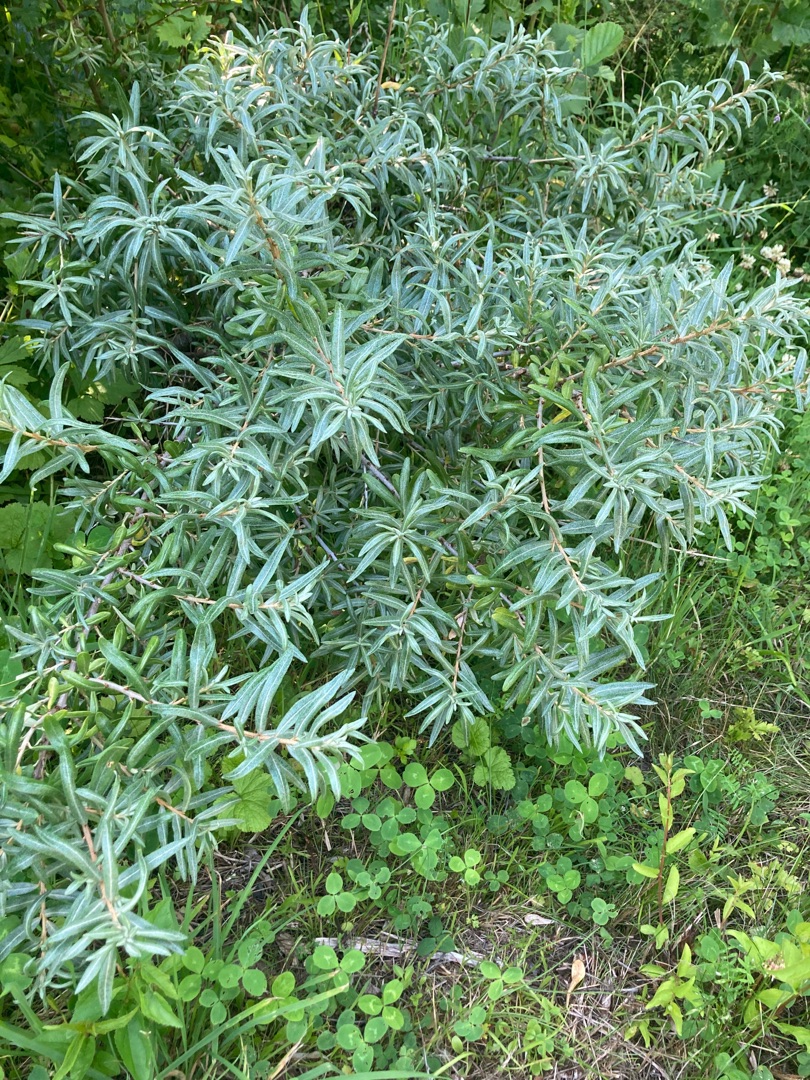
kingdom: Plantae
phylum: Tracheophyta
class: Magnoliopsida
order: Rosales
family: Elaeagnaceae
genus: Hippophae
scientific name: Hippophae rhamnoides
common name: Havtorn
